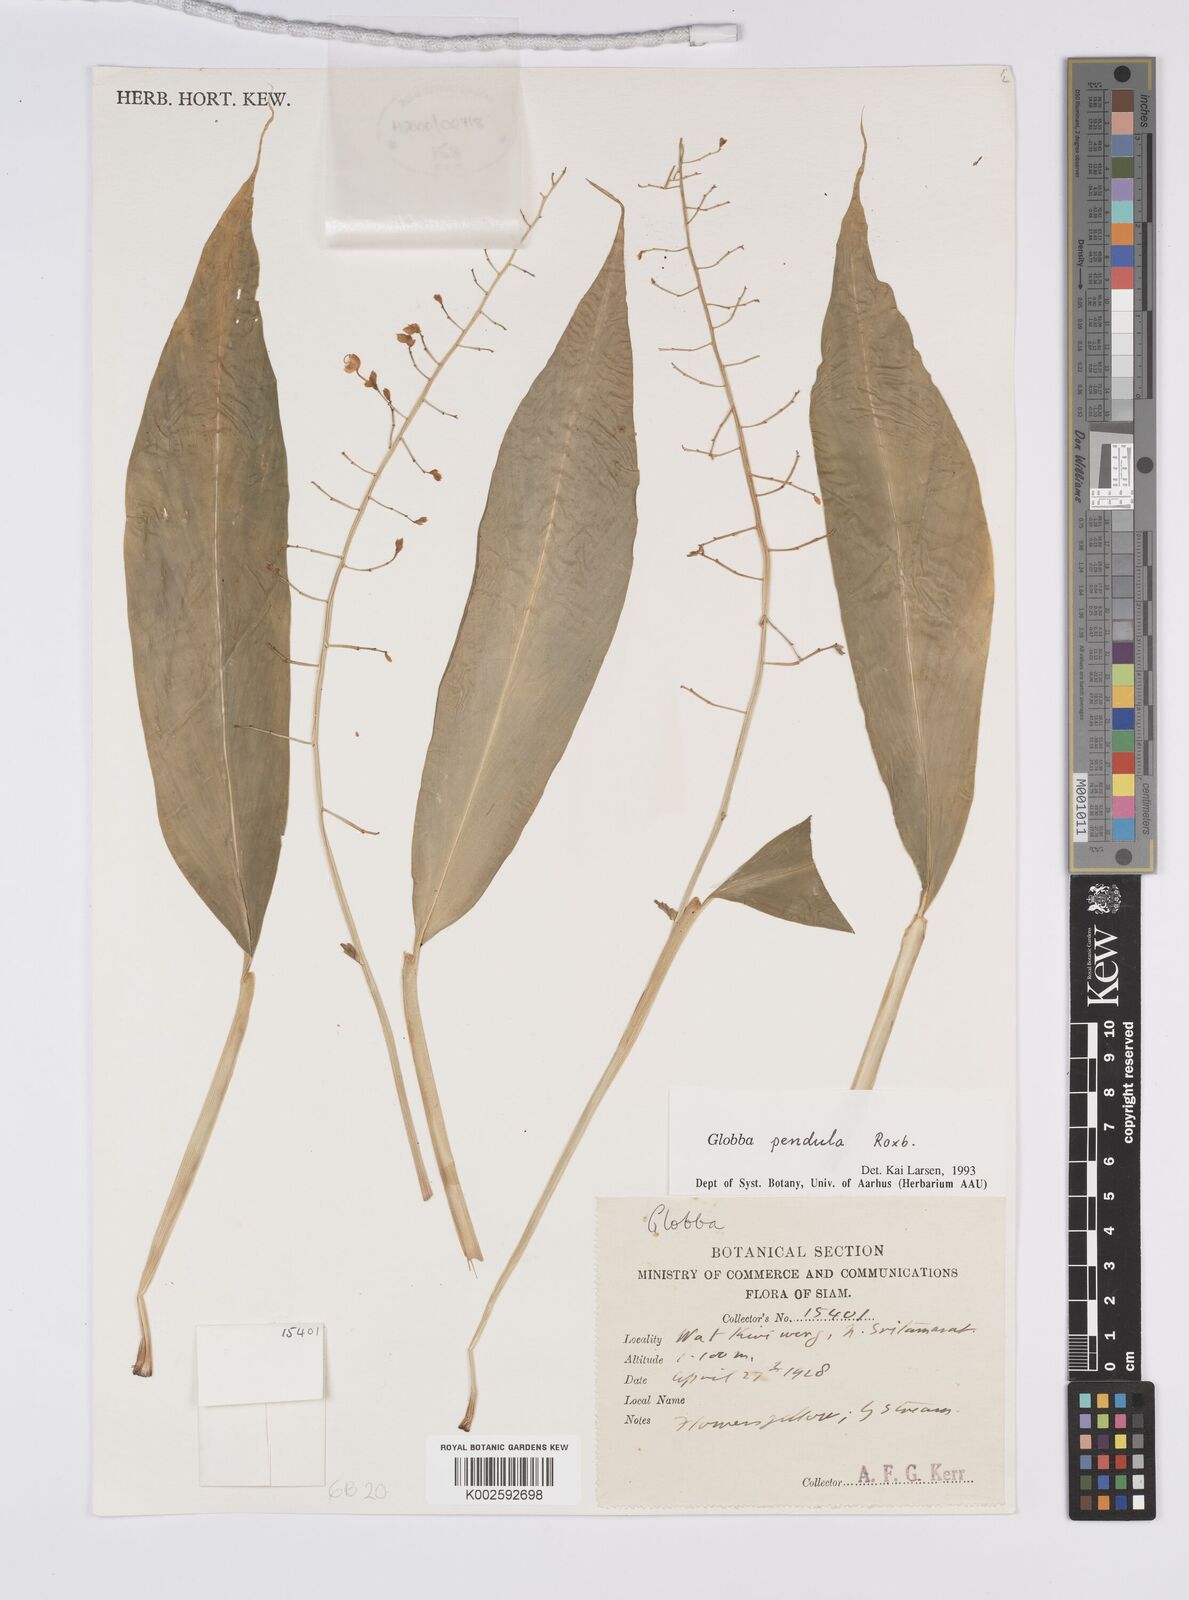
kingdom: Plantae
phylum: Tracheophyta
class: Liliopsida
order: Zingiberales
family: Zingiberaceae
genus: Globba
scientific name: Globba pendula
